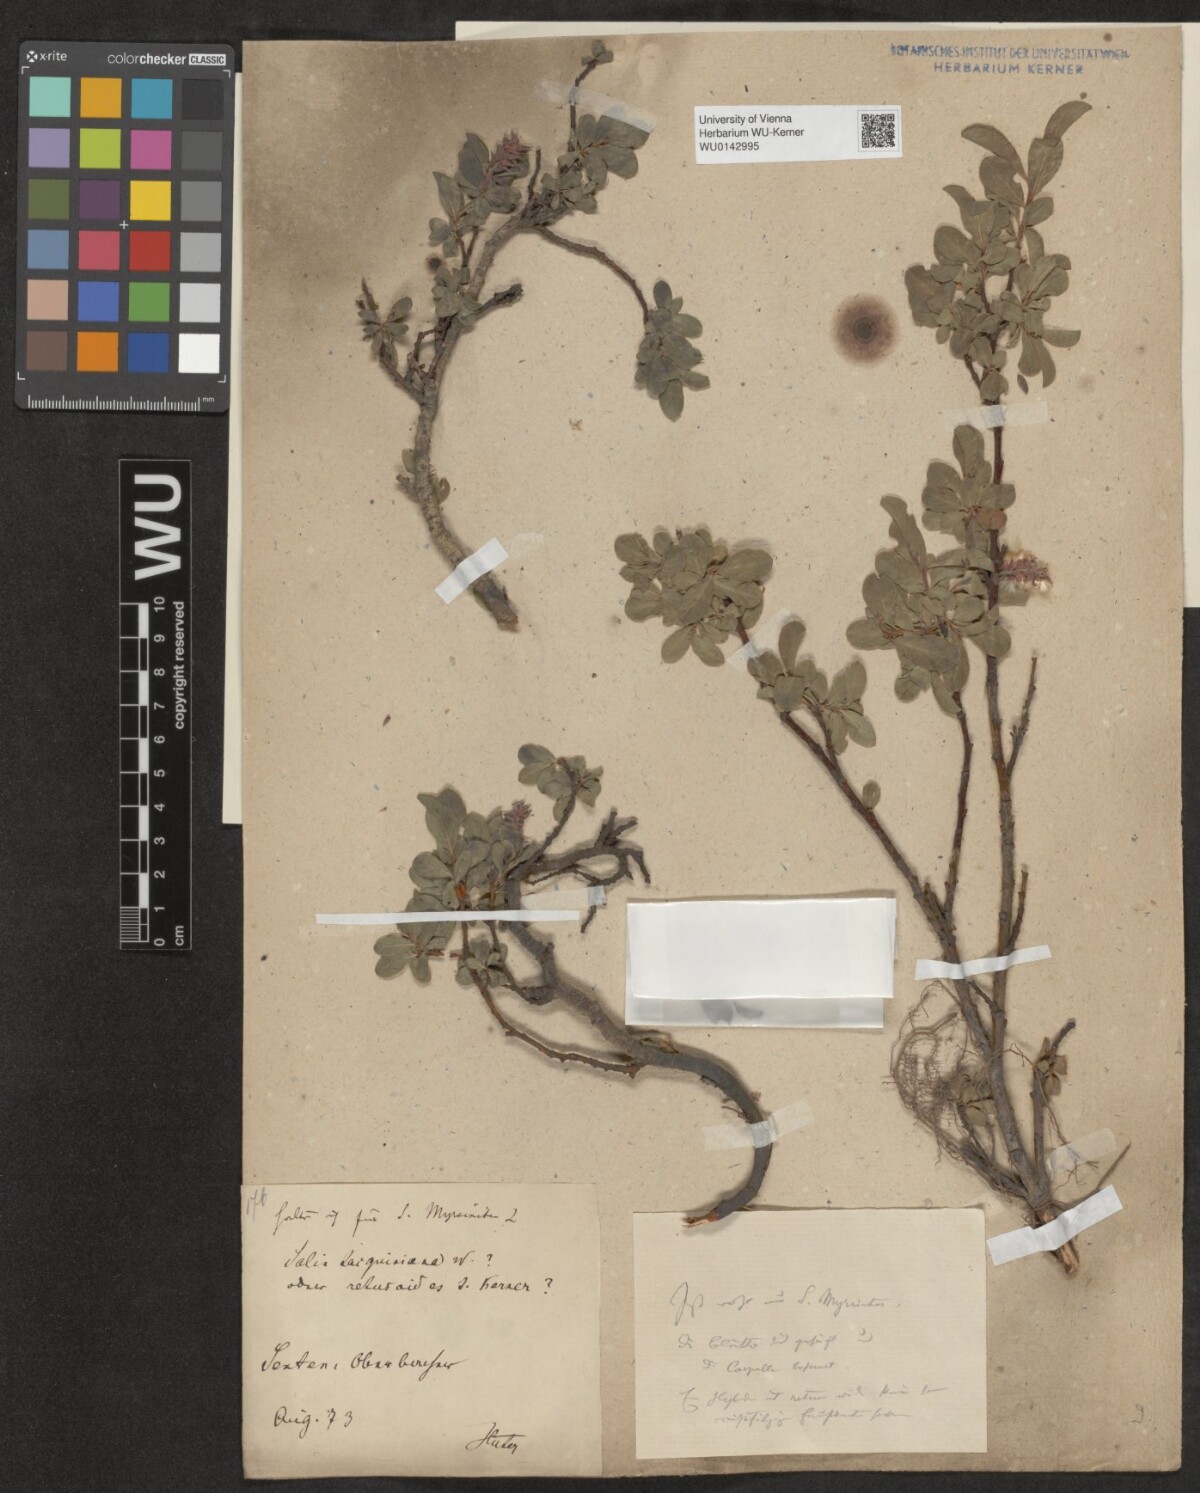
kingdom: Plantae
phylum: Tracheophyta
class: Magnoliopsida
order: Malpighiales
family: Salicaceae
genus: Salix
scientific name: Salix myrsinites
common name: Myrtle willow
